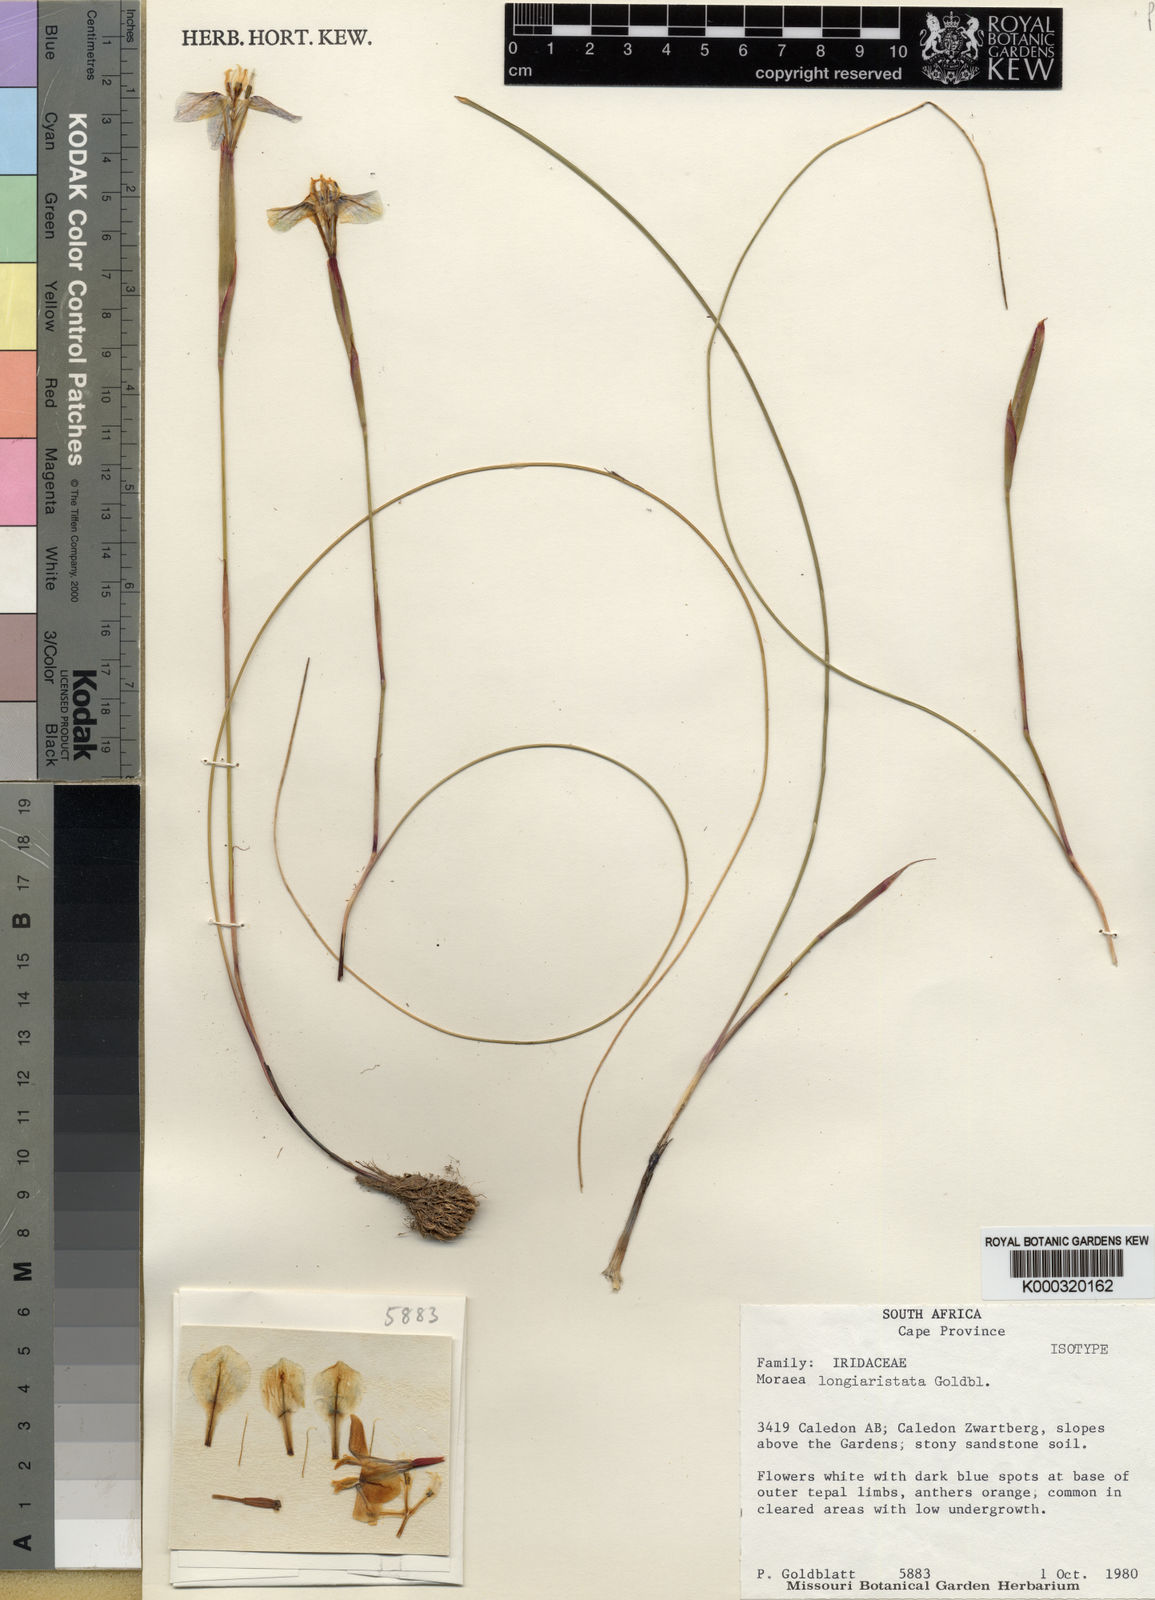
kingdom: Plantae
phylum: Tracheophyta
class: Liliopsida
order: Asparagales
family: Iridaceae
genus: Moraea
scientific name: Moraea longiaristata
